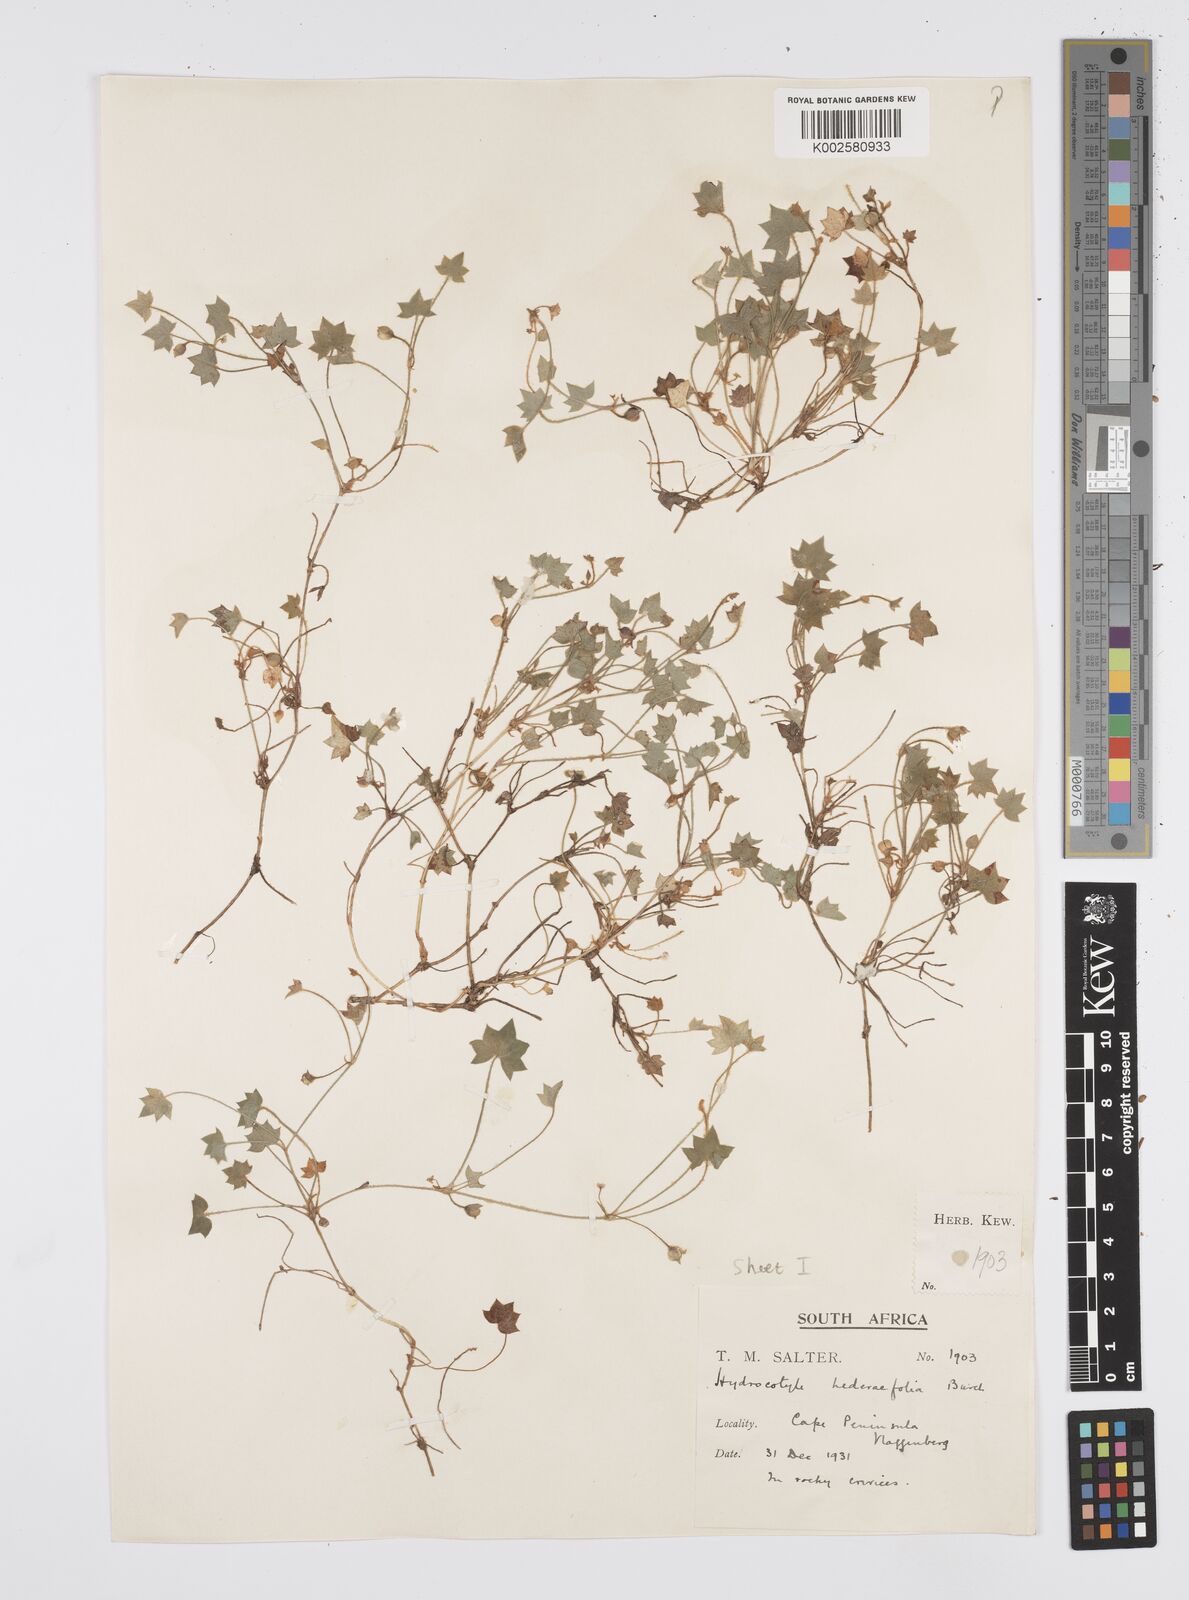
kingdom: Plantae
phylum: Tracheophyta
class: Magnoliopsida
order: Apiales
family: Apiaceae
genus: Centella
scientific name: Centella macroda
